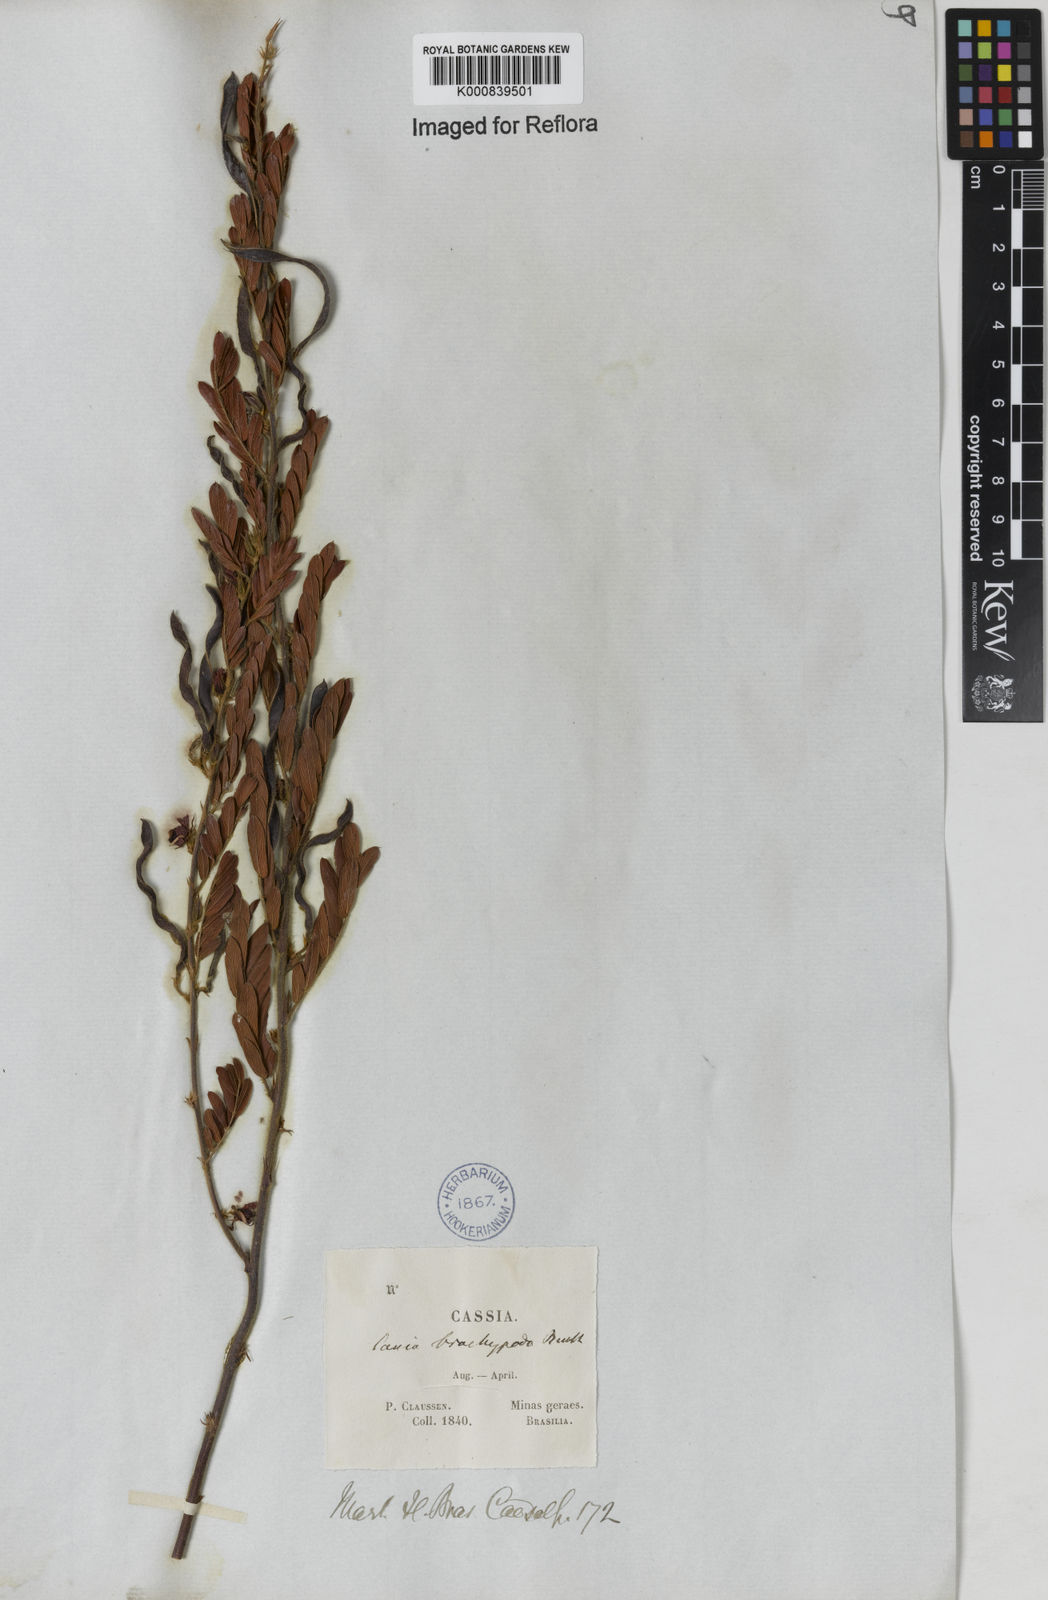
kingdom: Plantae
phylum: Tracheophyta
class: Magnoliopsida
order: Fabales
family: Fabaceae
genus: Chamaecrista
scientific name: Chamaecrista nictitans
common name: Sensitive cassia
